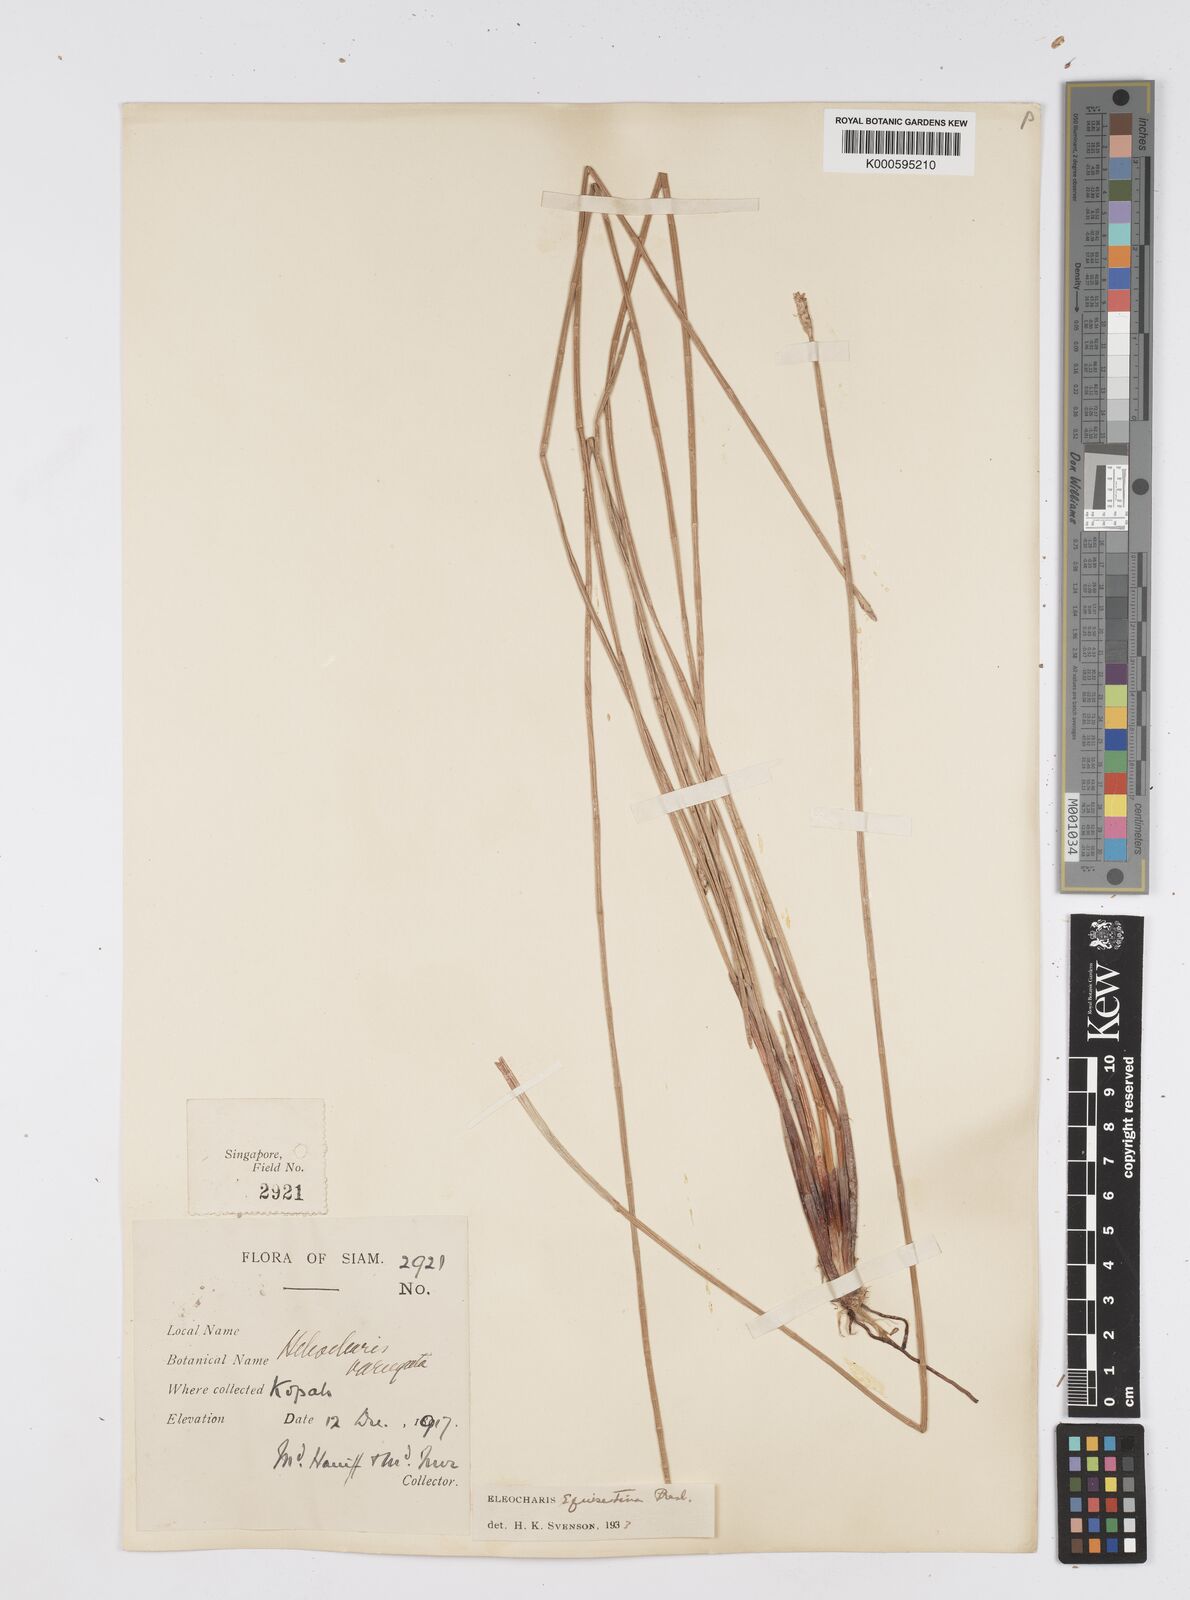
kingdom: Plantae
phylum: Tracheophyta
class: Liliopsida
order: Poales
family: Cyperaceae
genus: Eleocharis
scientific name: Eleocharis dulcis
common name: Chinese water chestnut
